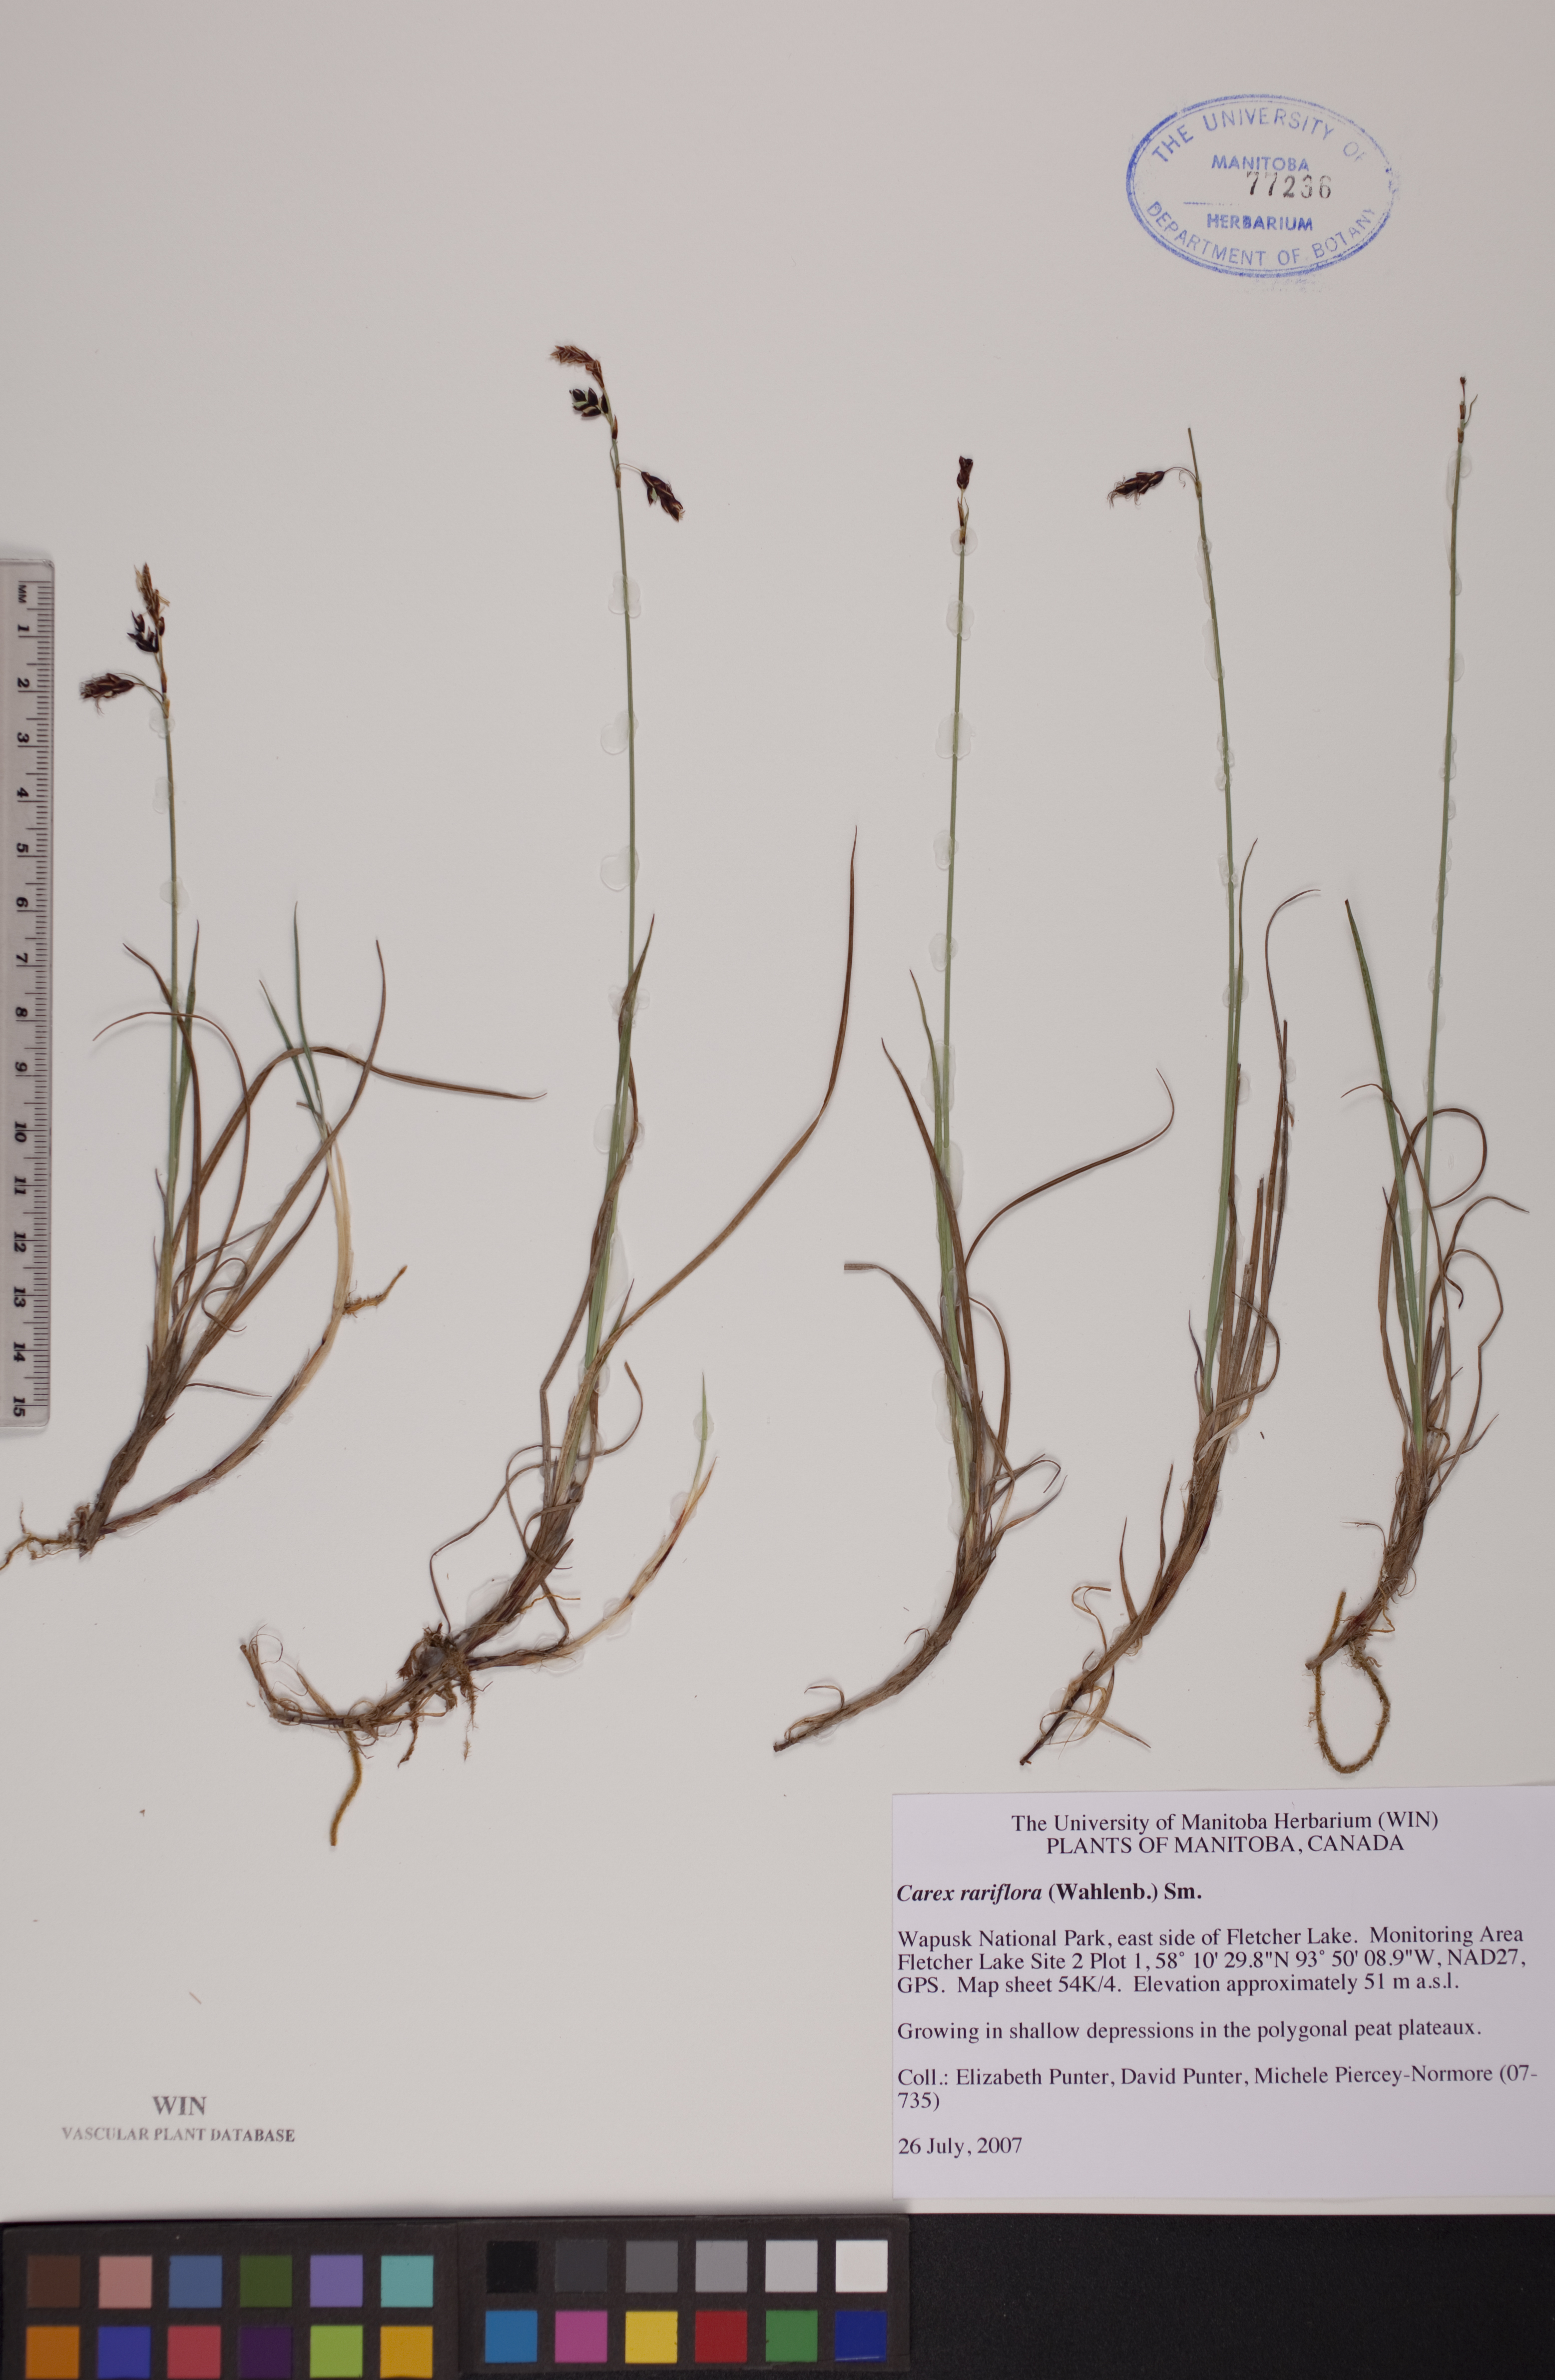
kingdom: Plantae
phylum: Tracheophyta
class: Liliopsida
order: Poales
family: Cyperaceae
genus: Carex
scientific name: Carex rariflora
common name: Loose-flowered alpine sedge
